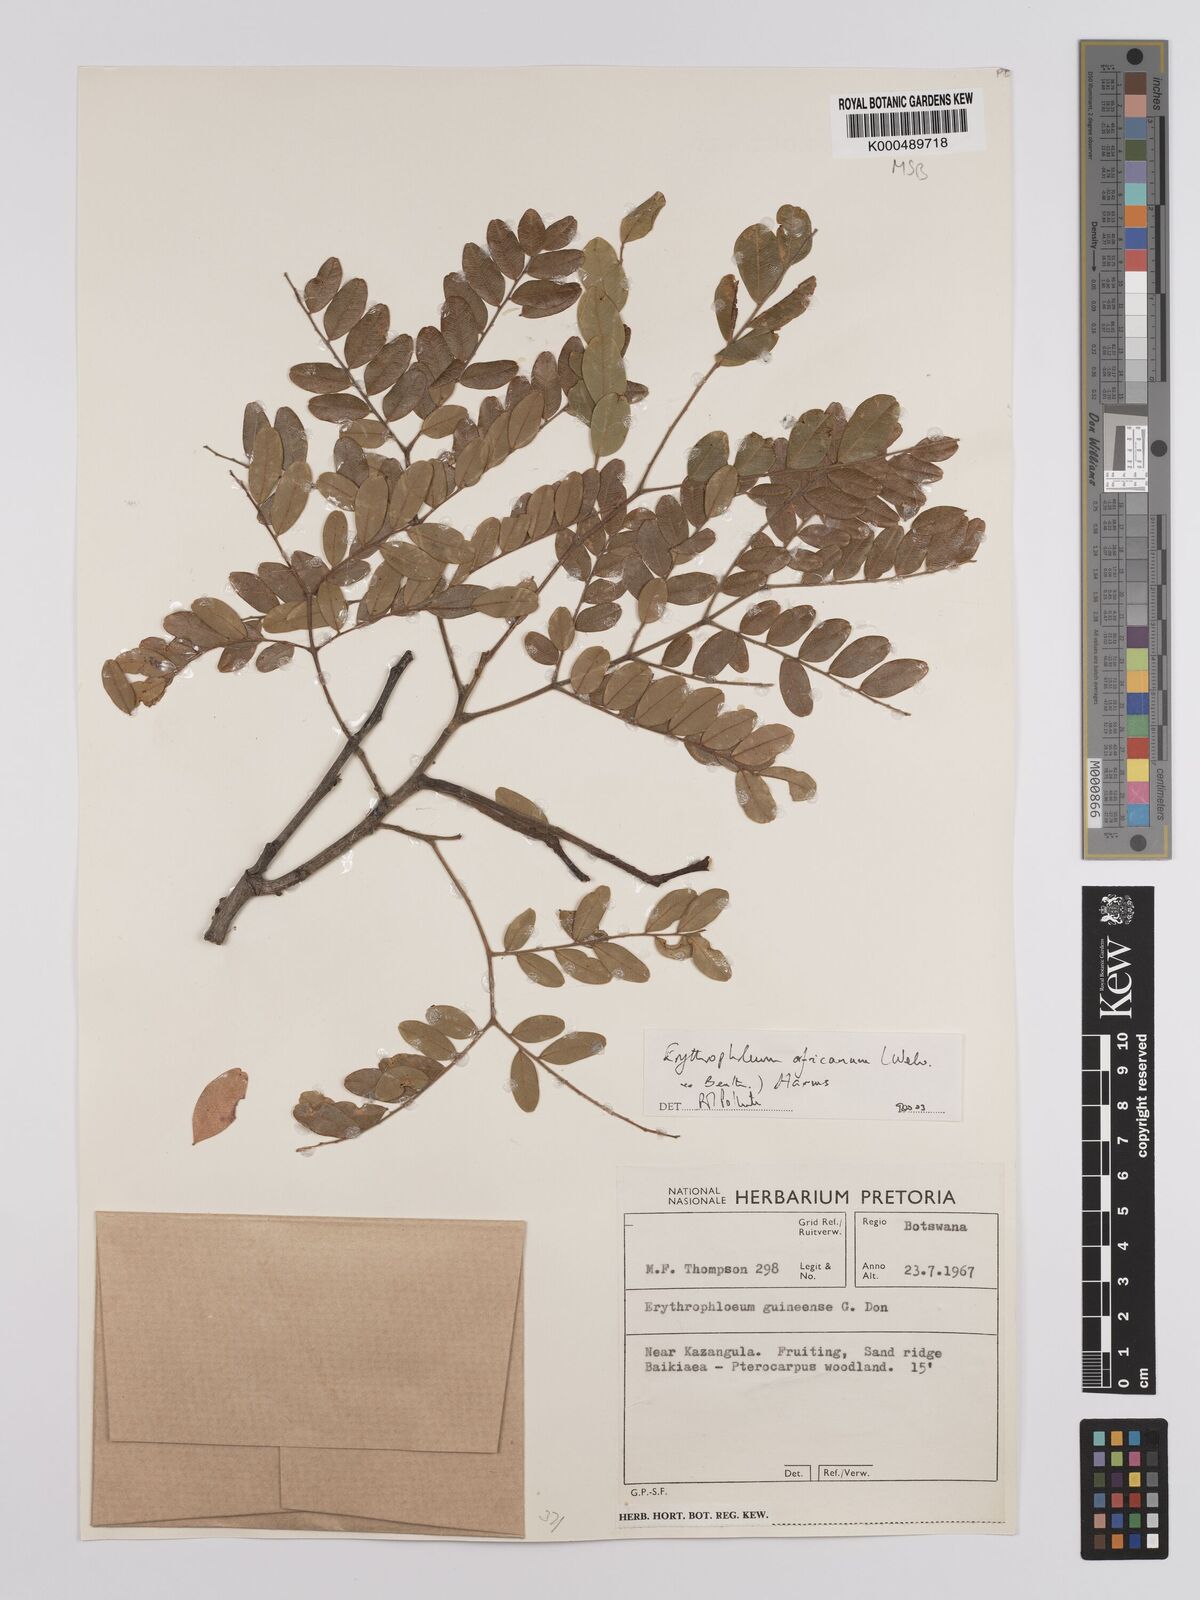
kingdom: Plantae
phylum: Tracheophyta
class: Magnoliopsida
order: Fabales
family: Fabaceae
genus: Erythrophleum
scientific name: Erythrophleum africanum
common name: African blackwood
